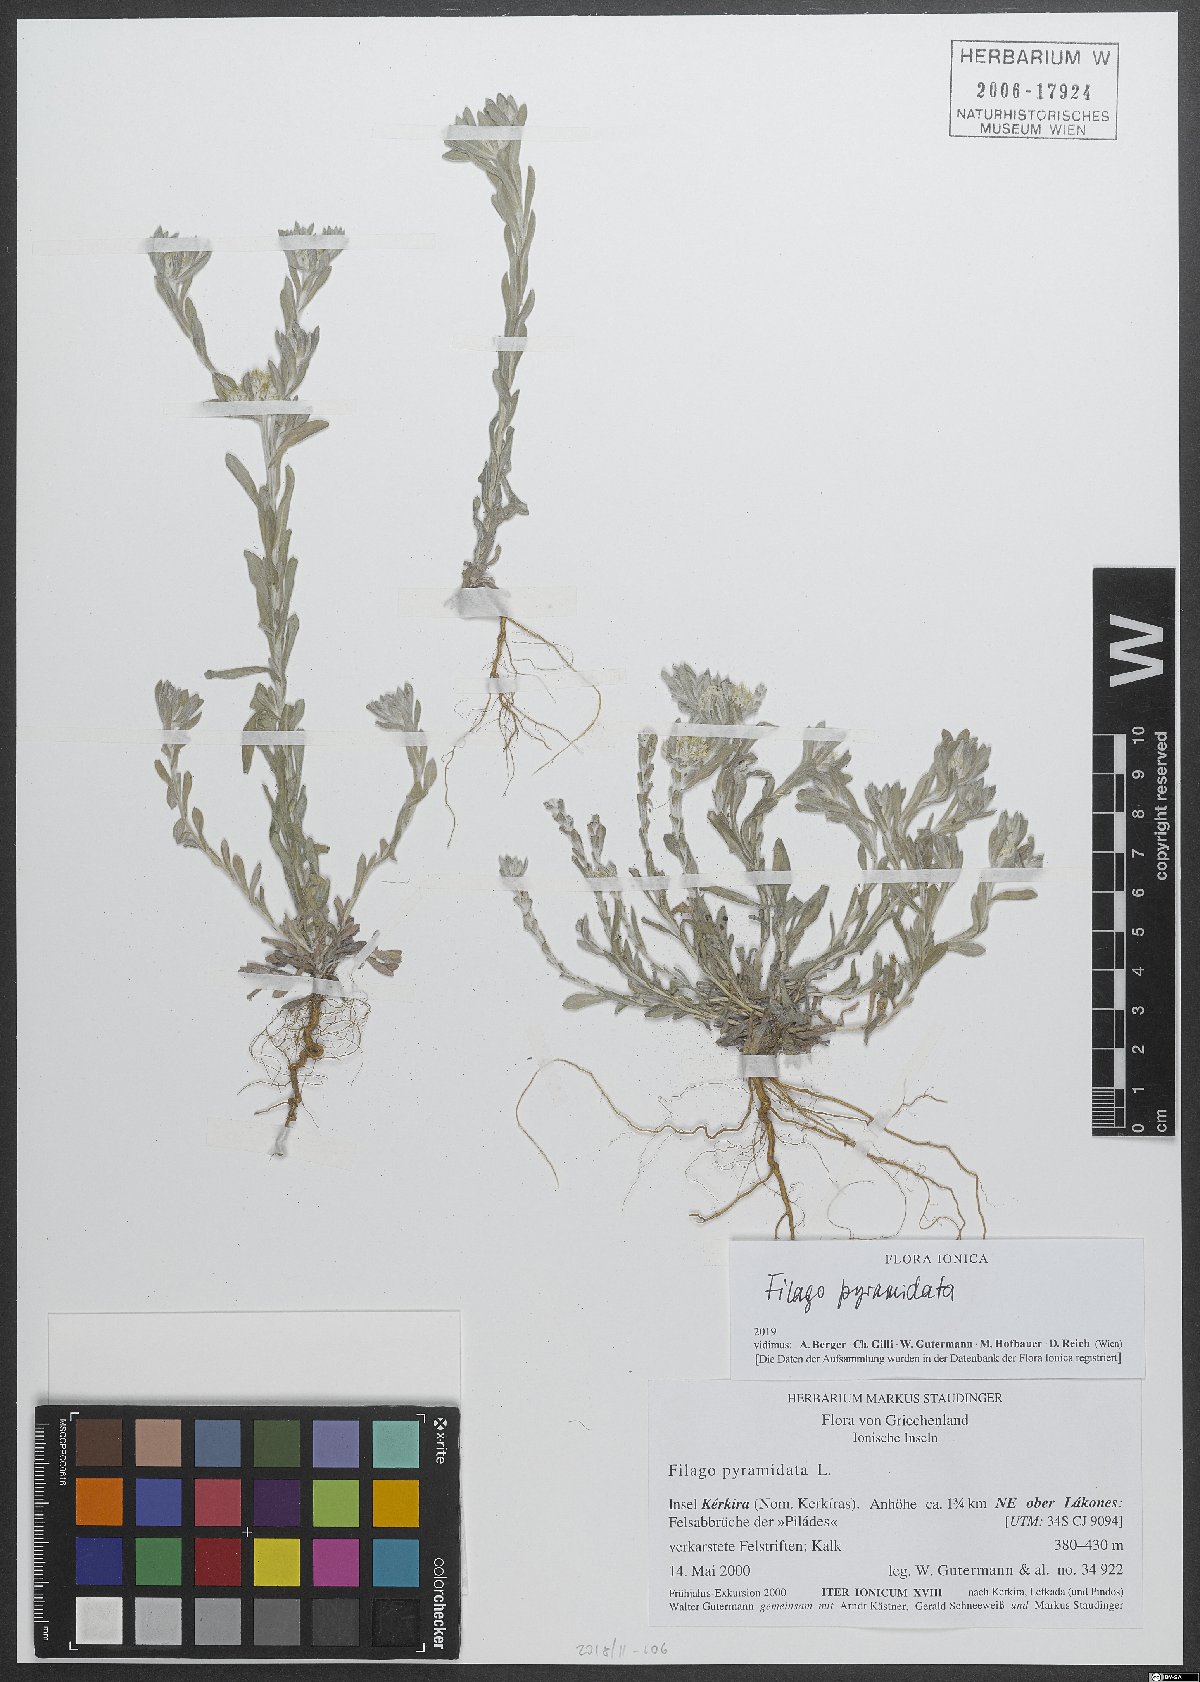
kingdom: Plantae
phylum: Tracheophyta
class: Magnoliopsida
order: Asterales
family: Asteraceae
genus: Filago
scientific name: Filago pyramidata
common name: Broad-leaved cudweed
